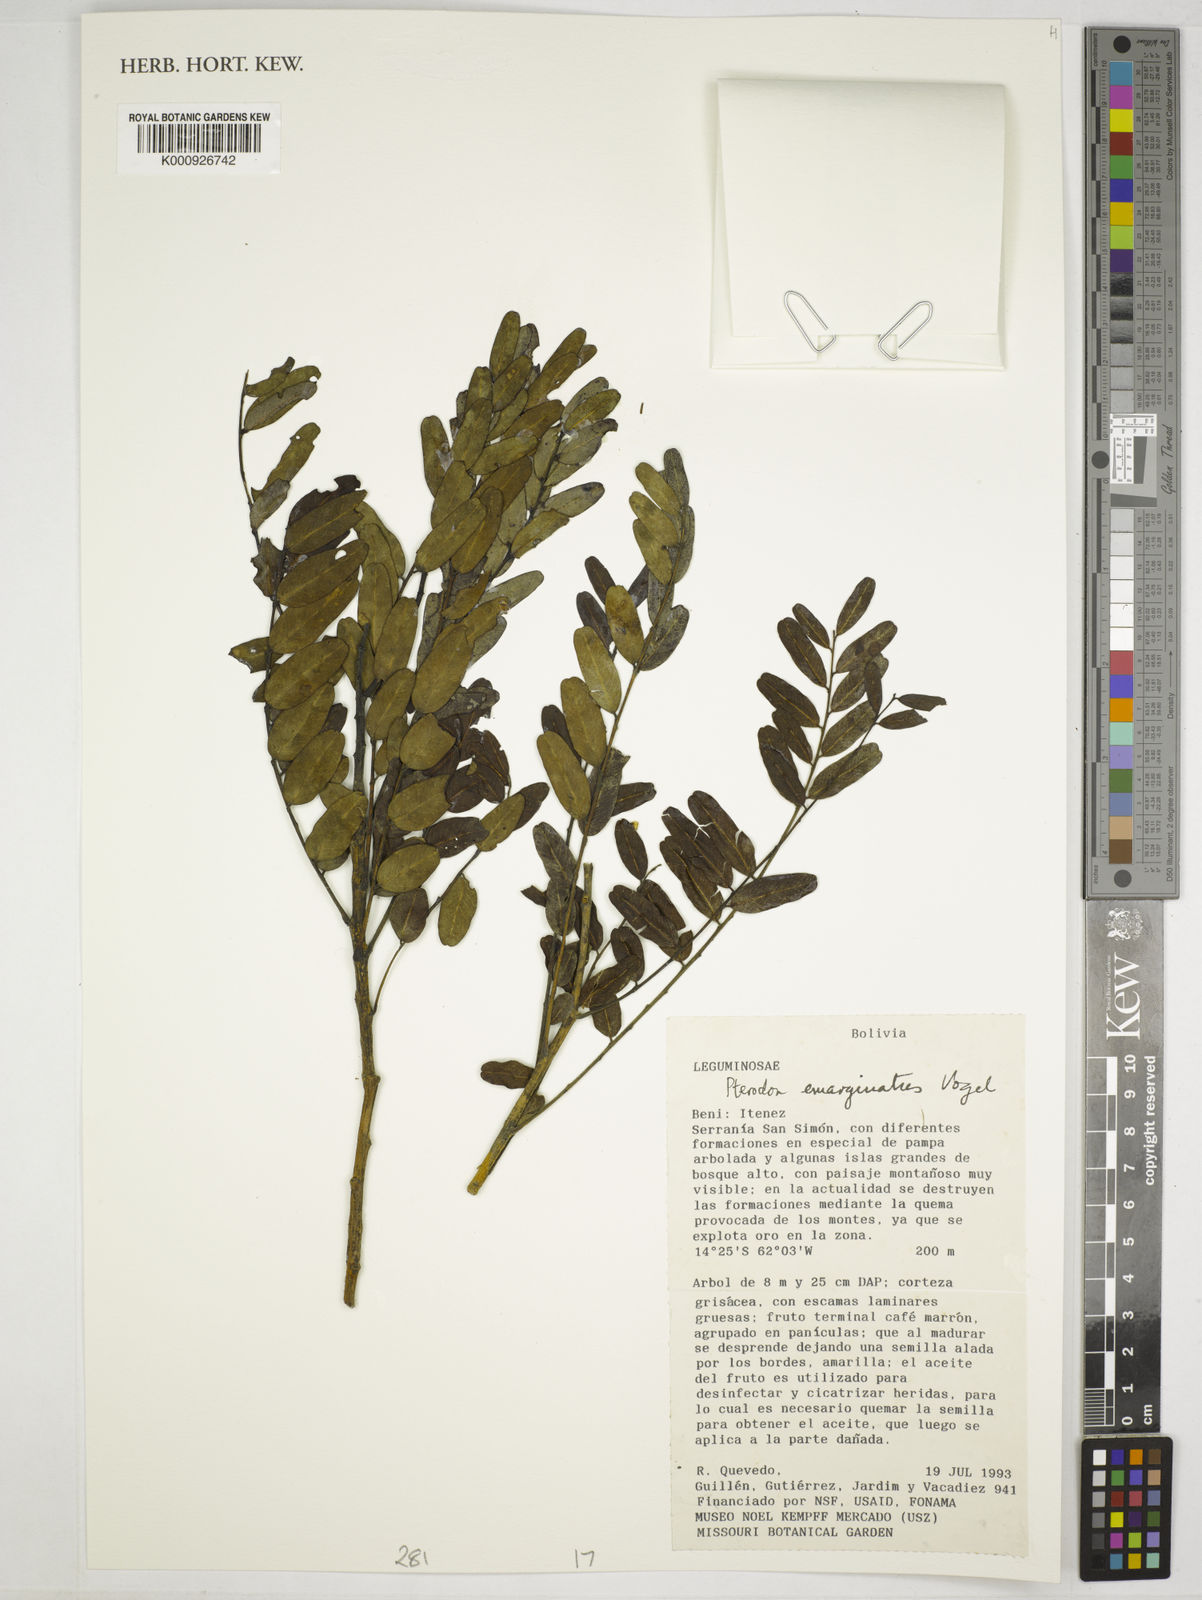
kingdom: Plantae
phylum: Tracheophyta
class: Magnoliopsida
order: Fabales
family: Fabaceae
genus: Pterodon
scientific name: Pterodon emarginatus
